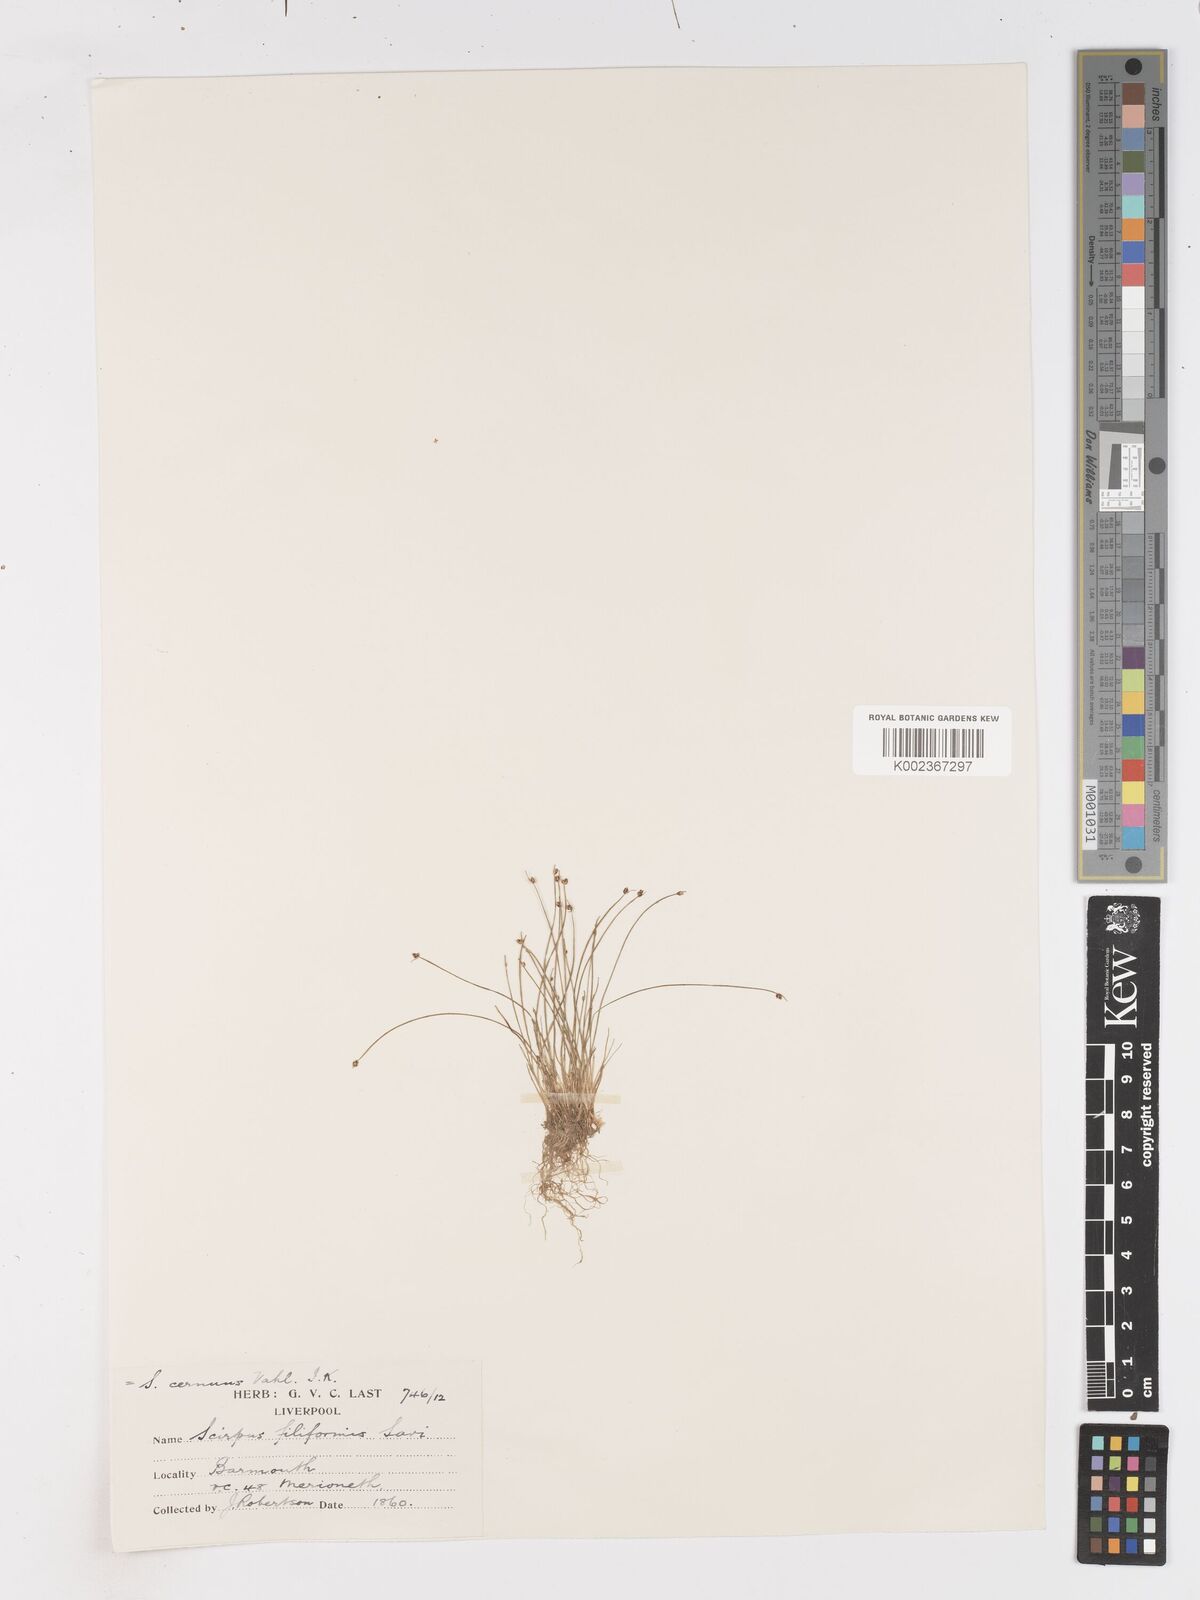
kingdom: Plantae
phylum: Tracheophyta
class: Liliopsida
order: Poales
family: Cyperaceae
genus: Isolepis
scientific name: Isolepis cernua
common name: Slender club-rush
